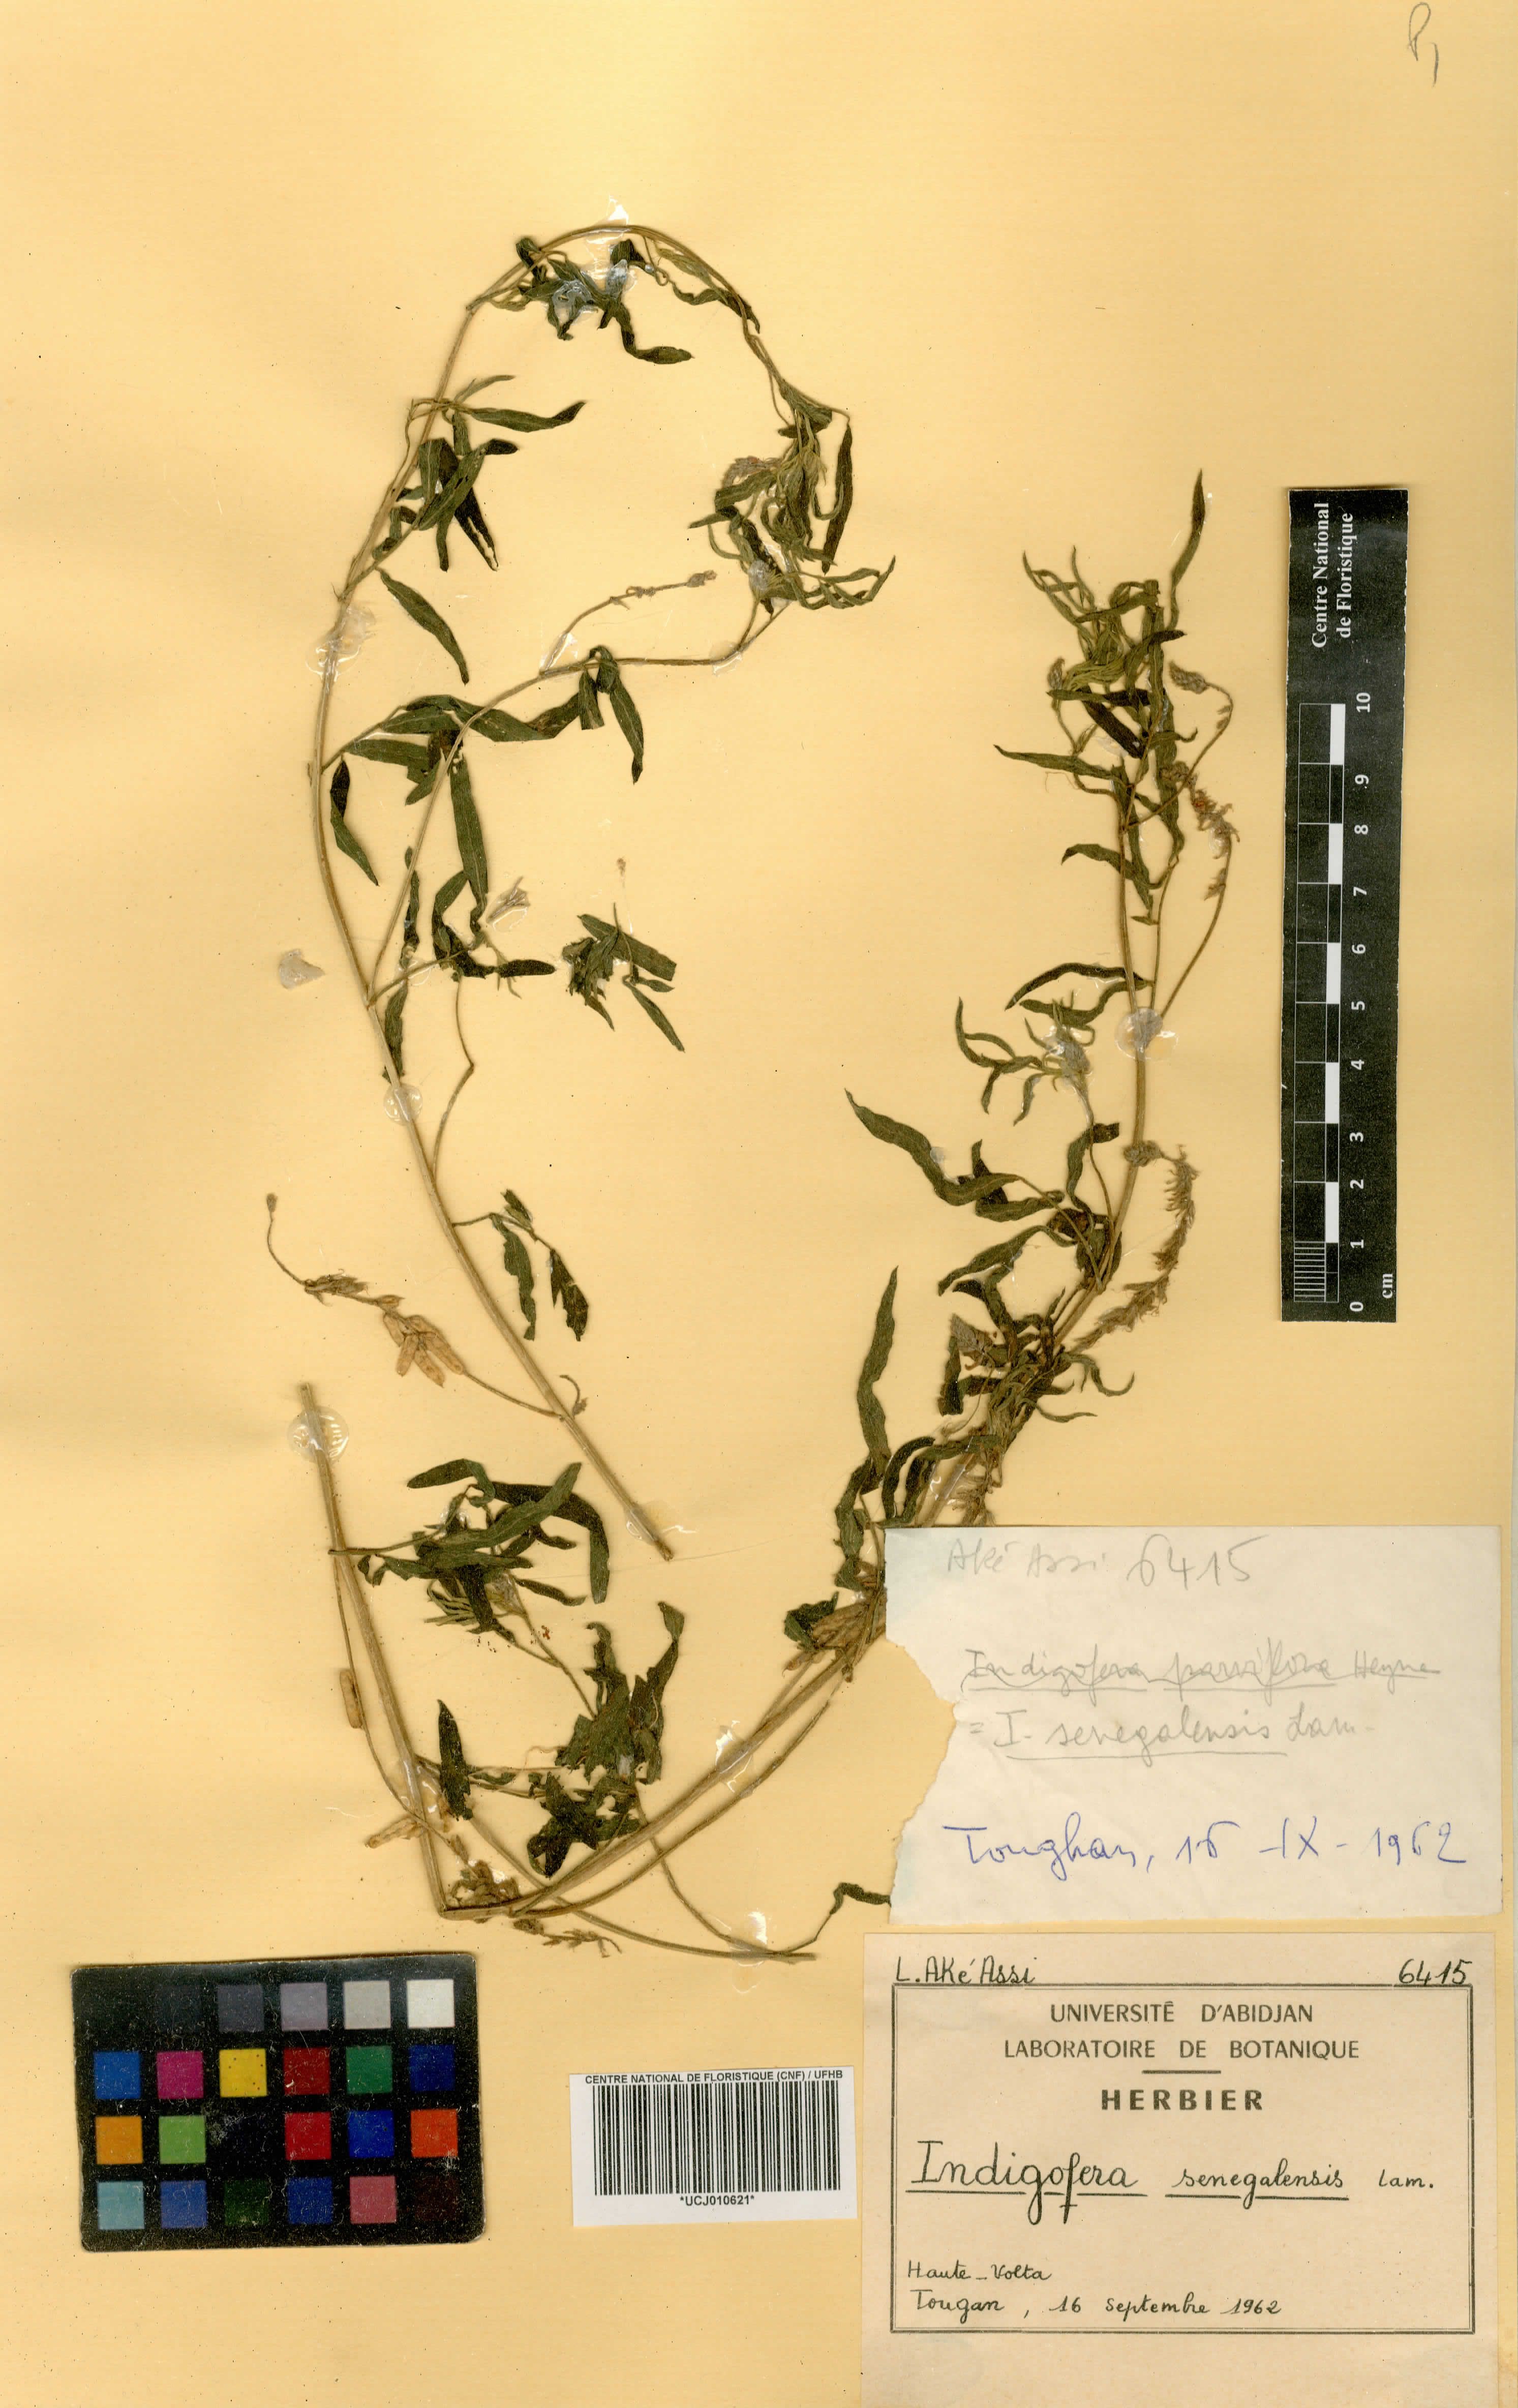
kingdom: Plantae
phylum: Tracheophyta
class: Magnoliopsida
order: Fabales
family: Fabaceae
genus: Indigofera
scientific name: Indigofera suffruticosa
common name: Anil de pasto
